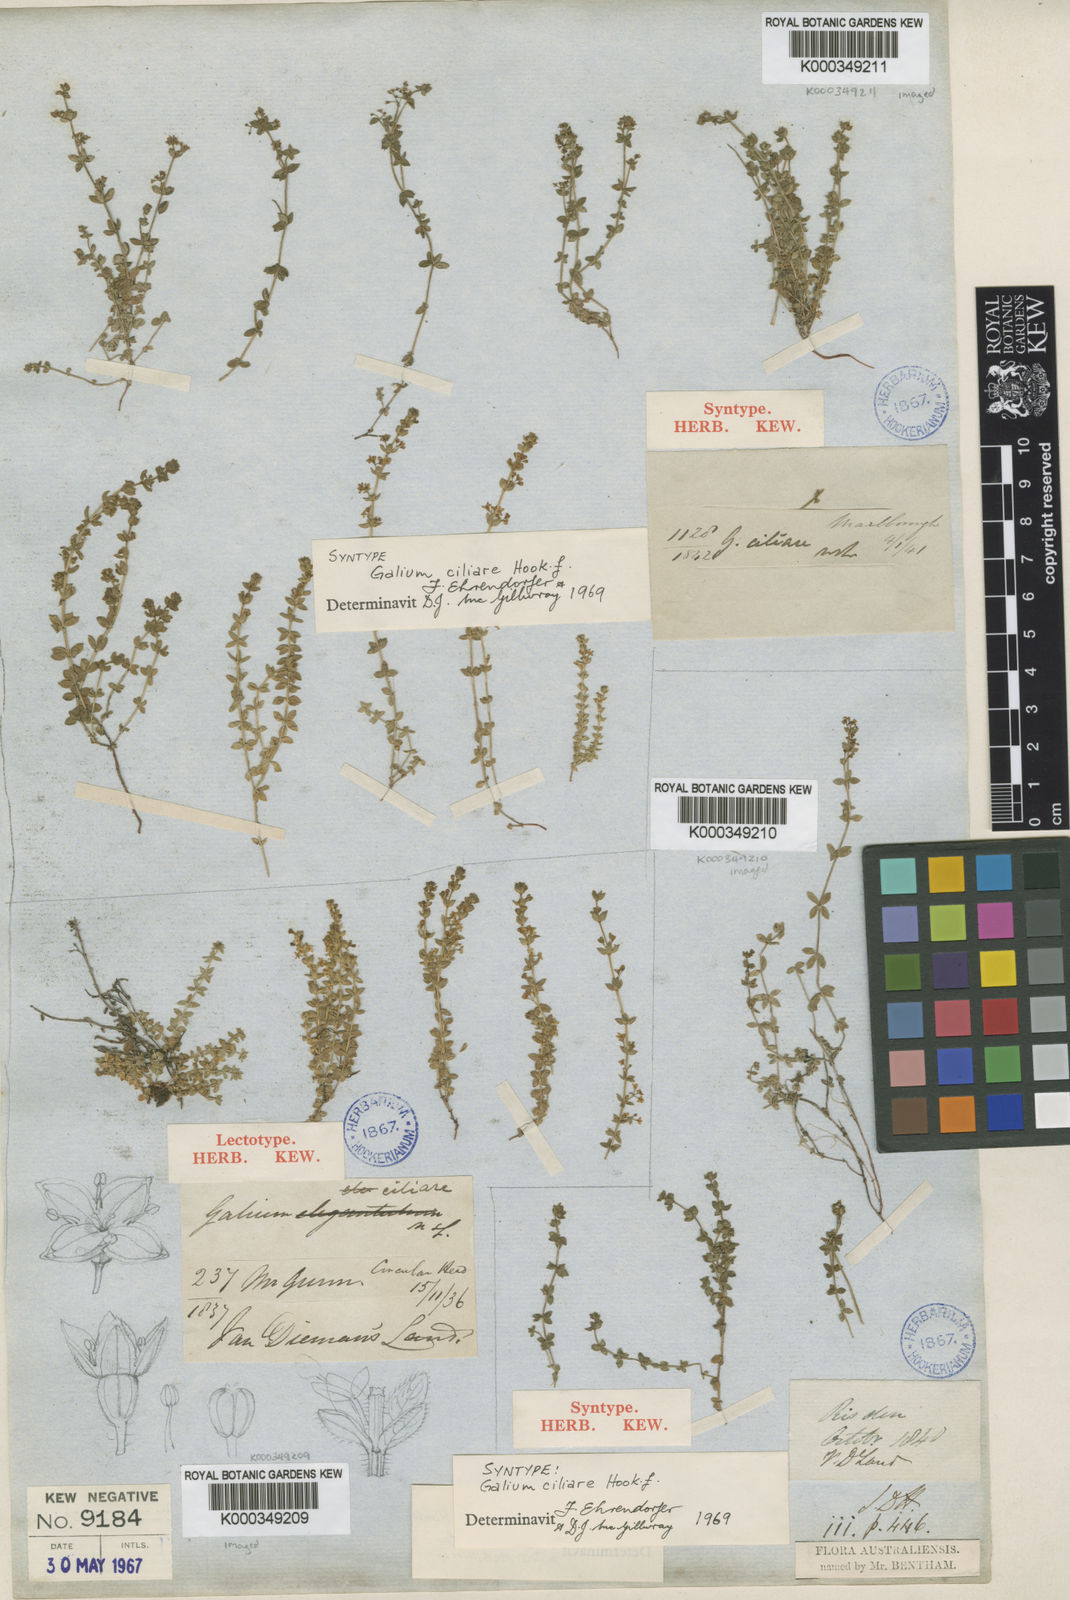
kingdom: Plantae
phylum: Tracheophyta
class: Magnoliopsida
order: Gentianales
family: Rubiaceae
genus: Galium
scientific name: Galium ciliare
